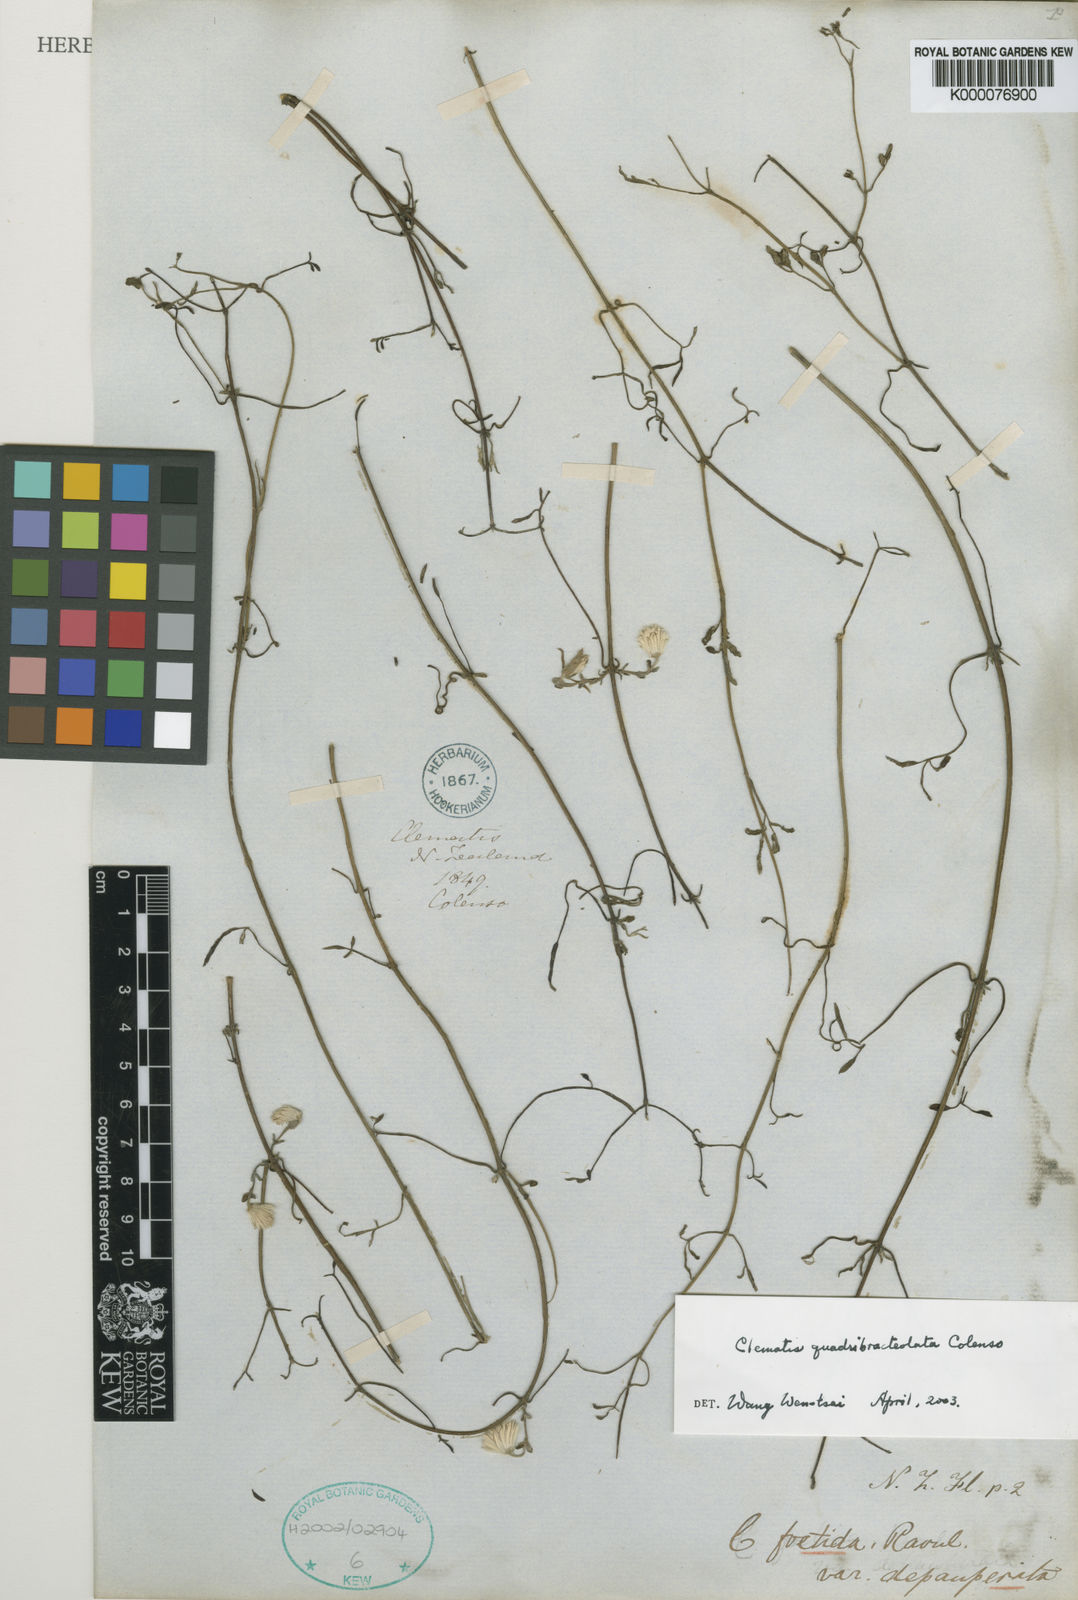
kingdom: Plantae
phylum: Tracheophyta
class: Magnoliopsida
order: Ranunculales
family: Ranunculaceae
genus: Clematis
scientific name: Clematis quadribracteolata
